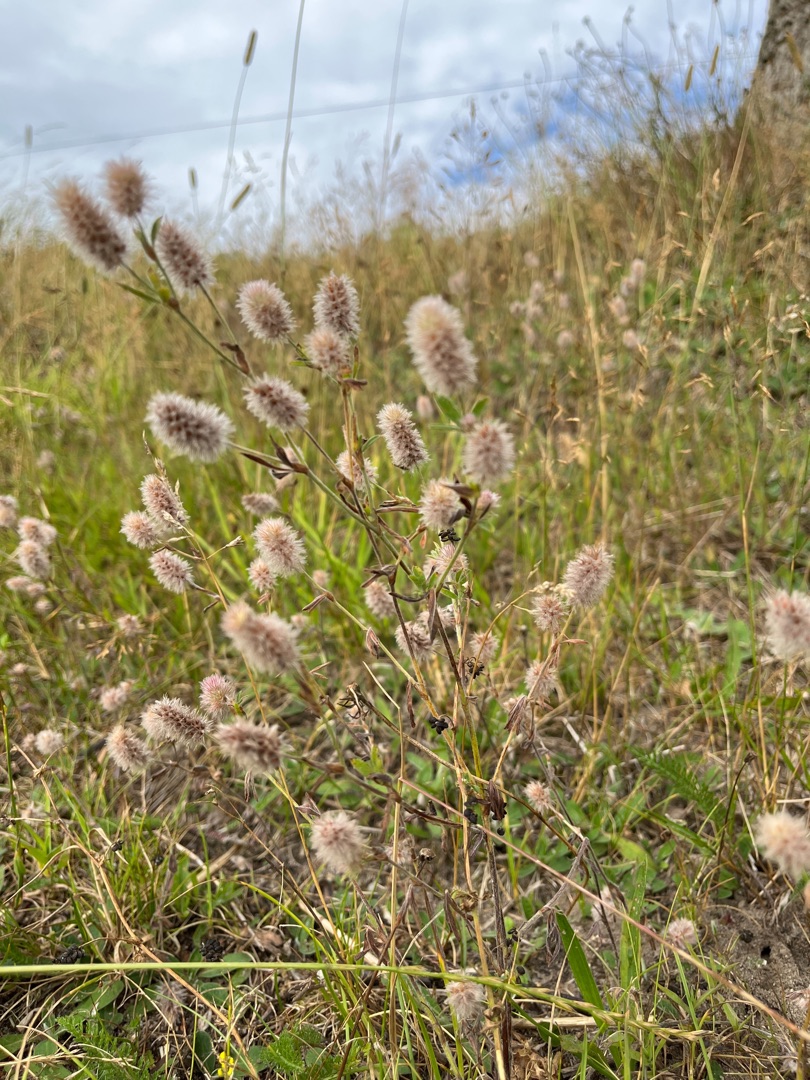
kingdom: Plantae
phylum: Tracheophyta
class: Magnoliopsida
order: Fabales
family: Fabaceae
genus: Trifolium
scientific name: Trifolium arvense
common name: Hare-kløver
